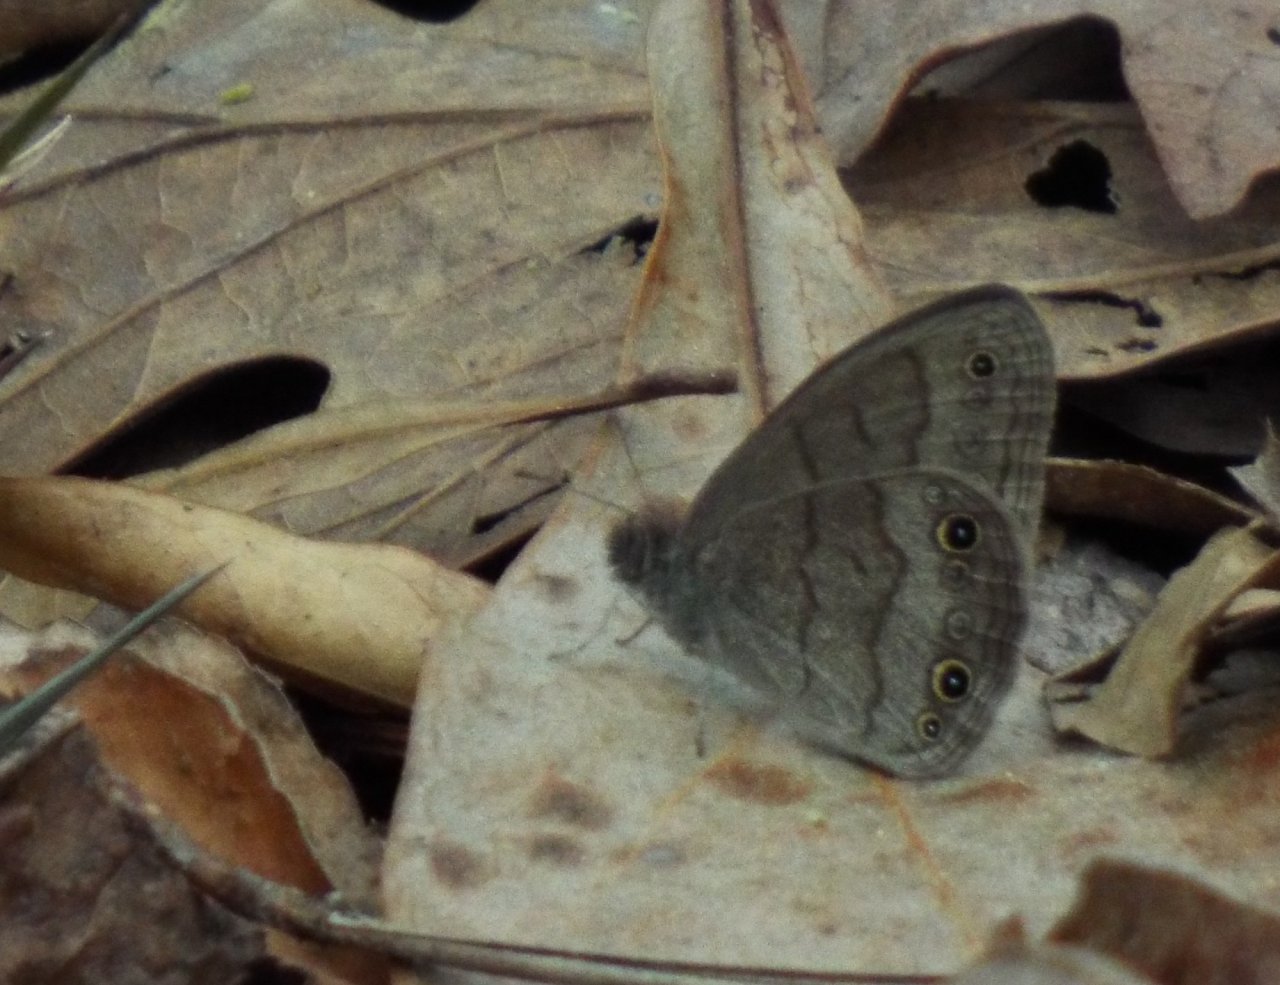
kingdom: Animalia
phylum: Arthropoda
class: Insecta
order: Lepidoptera
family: Nymphalidae
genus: Hermeuptychia
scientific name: Hermeuptychia hermes
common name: Carolina Satyr
